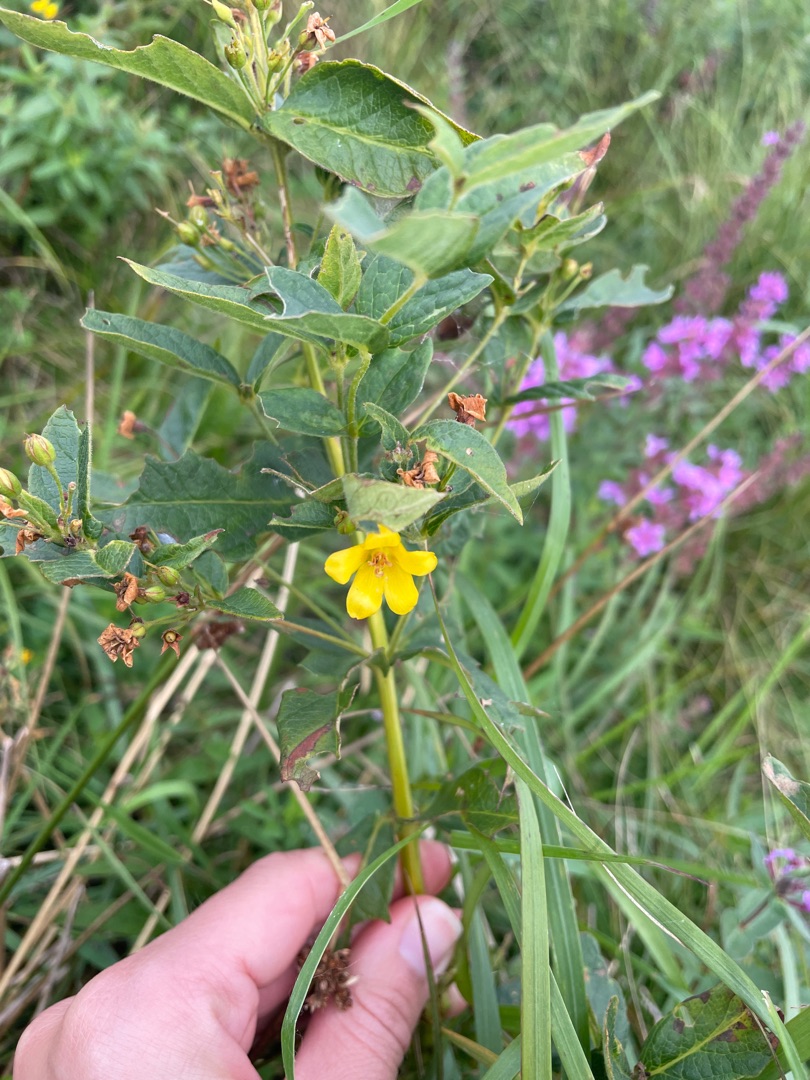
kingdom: Plantae
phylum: Tracheophyta
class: Magnoliopsida
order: Ericales
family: Primulaceae
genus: Lysimachia
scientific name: Lysimachia vulgaris
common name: Almindelig fredløs
